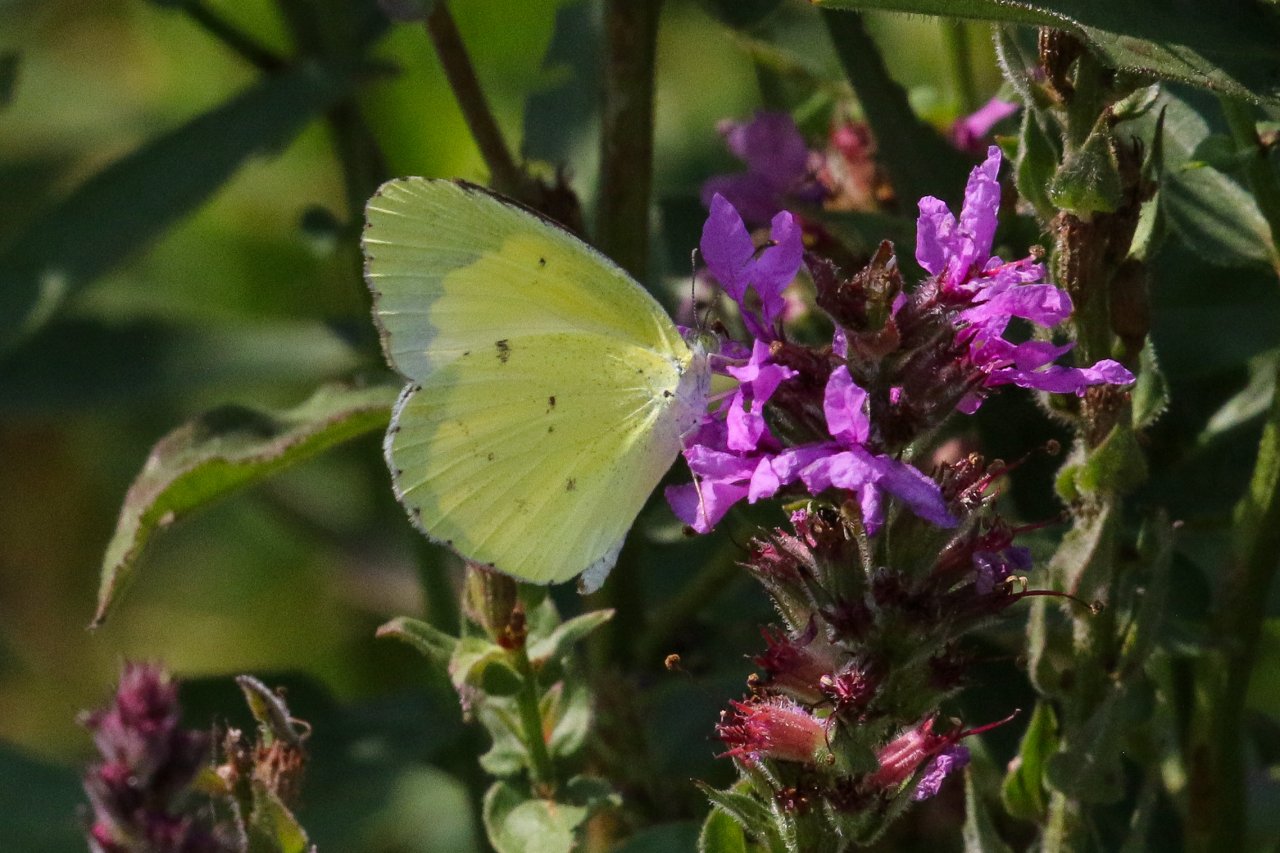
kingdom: Animalia
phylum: Arthropoda
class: Insecta
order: Lepidoptera
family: Pieridae
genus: Pyrisitia
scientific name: Pyrisitia lisa
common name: Little Yellow
